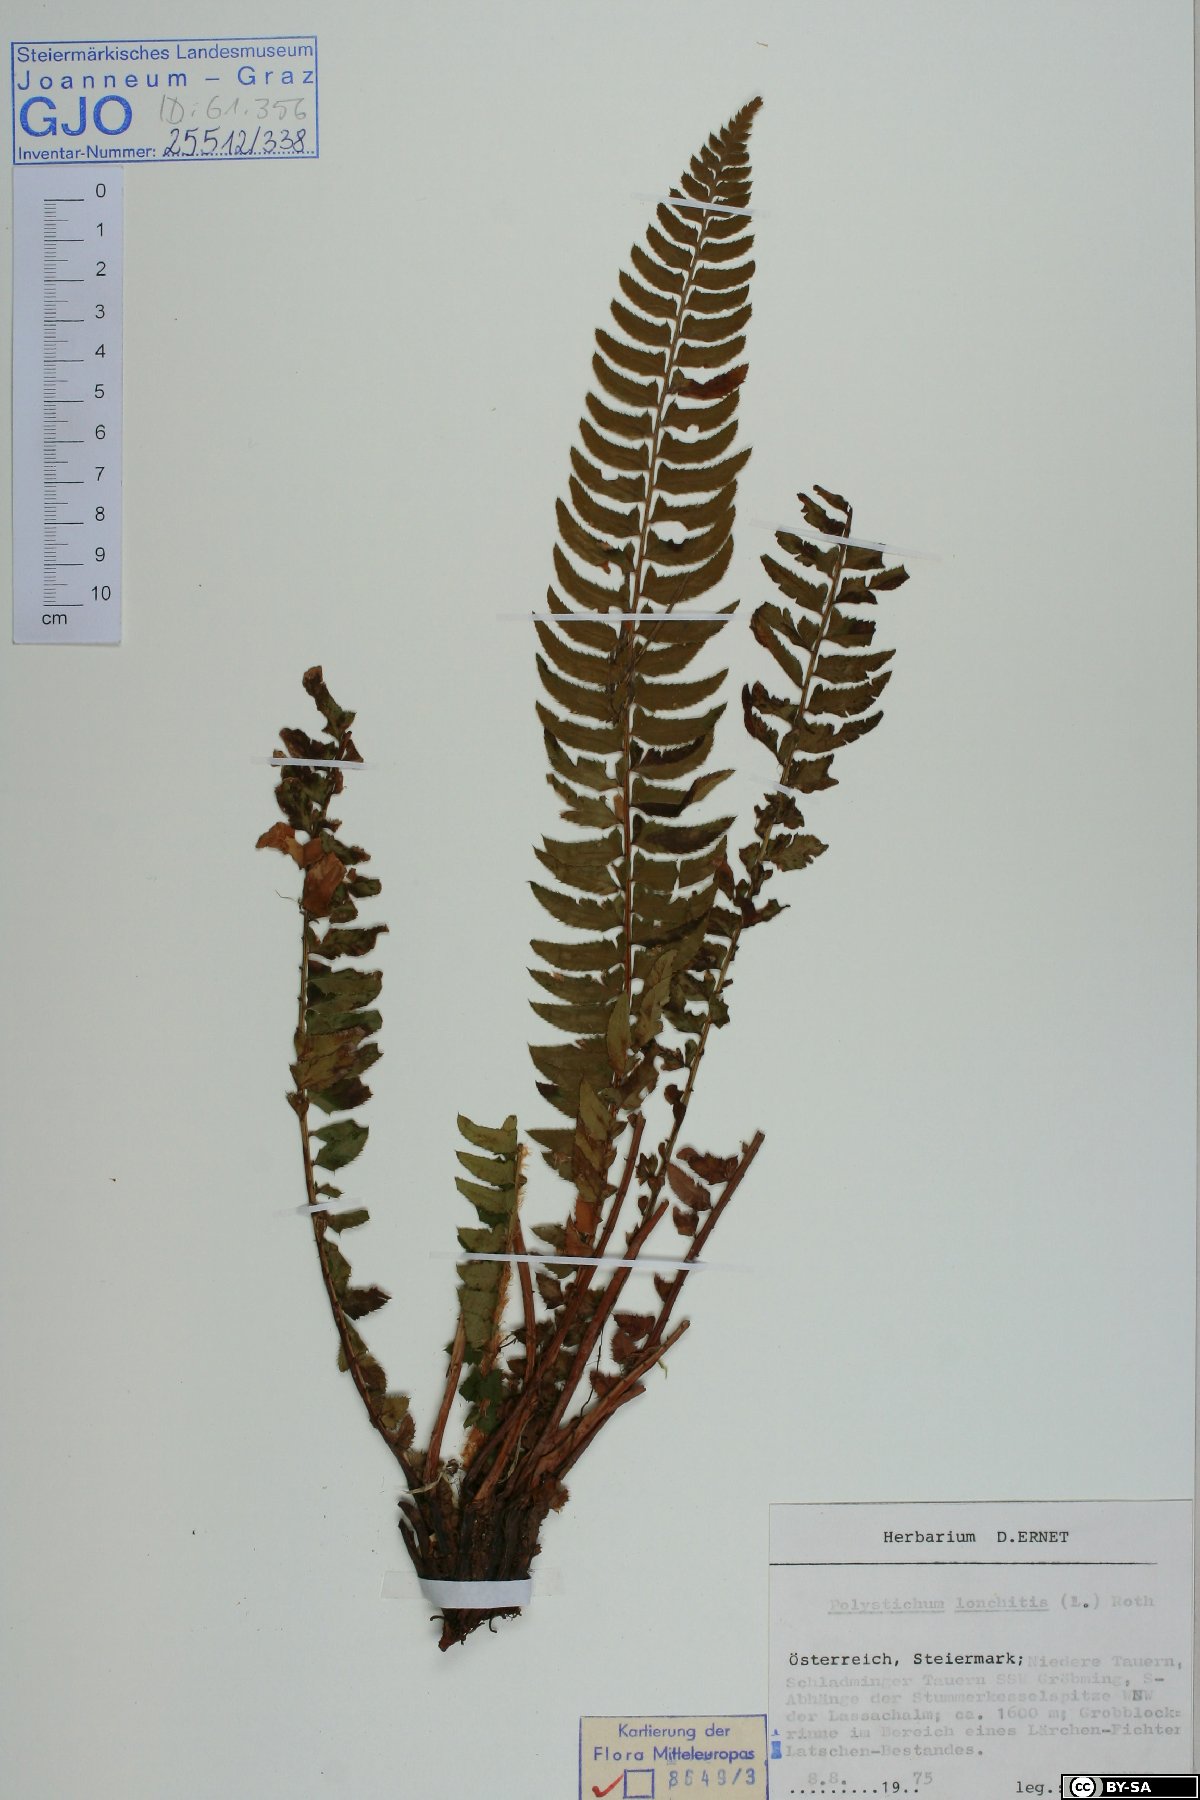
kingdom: Plantae
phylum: Tracheophyta
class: Polypodiopsida
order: Polypodiales
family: Dryopteridaceae
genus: Polystichum
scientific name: Polystichum lonchitis
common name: Holly fern
